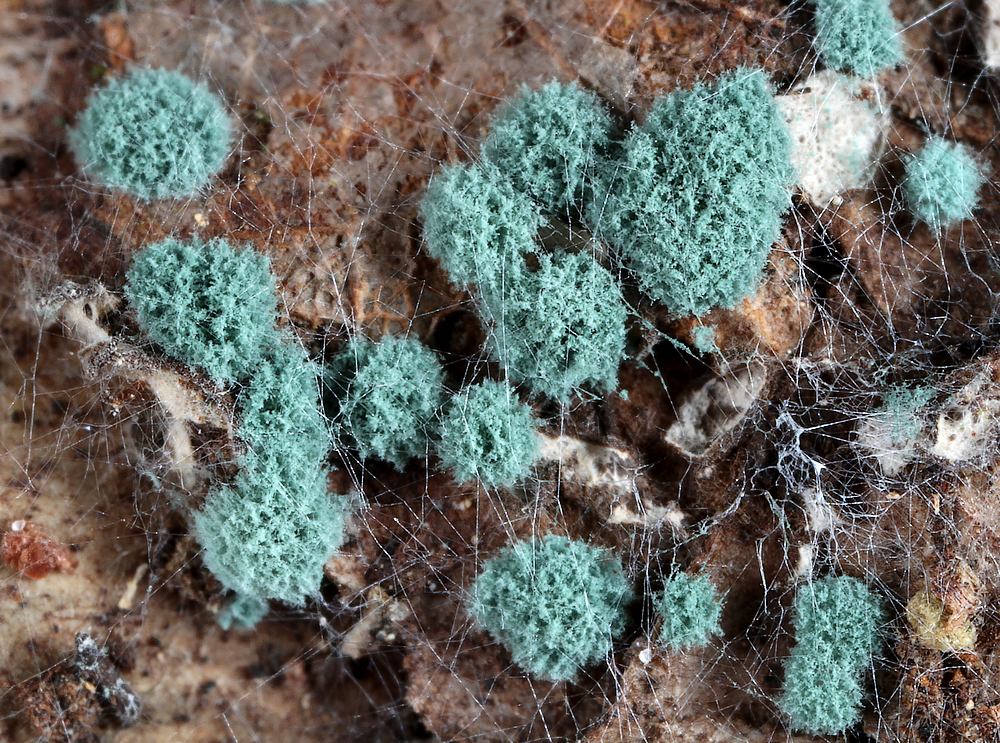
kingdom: Fungi
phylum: Ascomycota
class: Sordariomycetes
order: Hypocreales
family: Hypocreaceae
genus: Trichoderma
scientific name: Trichoderma
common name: kødkerne
